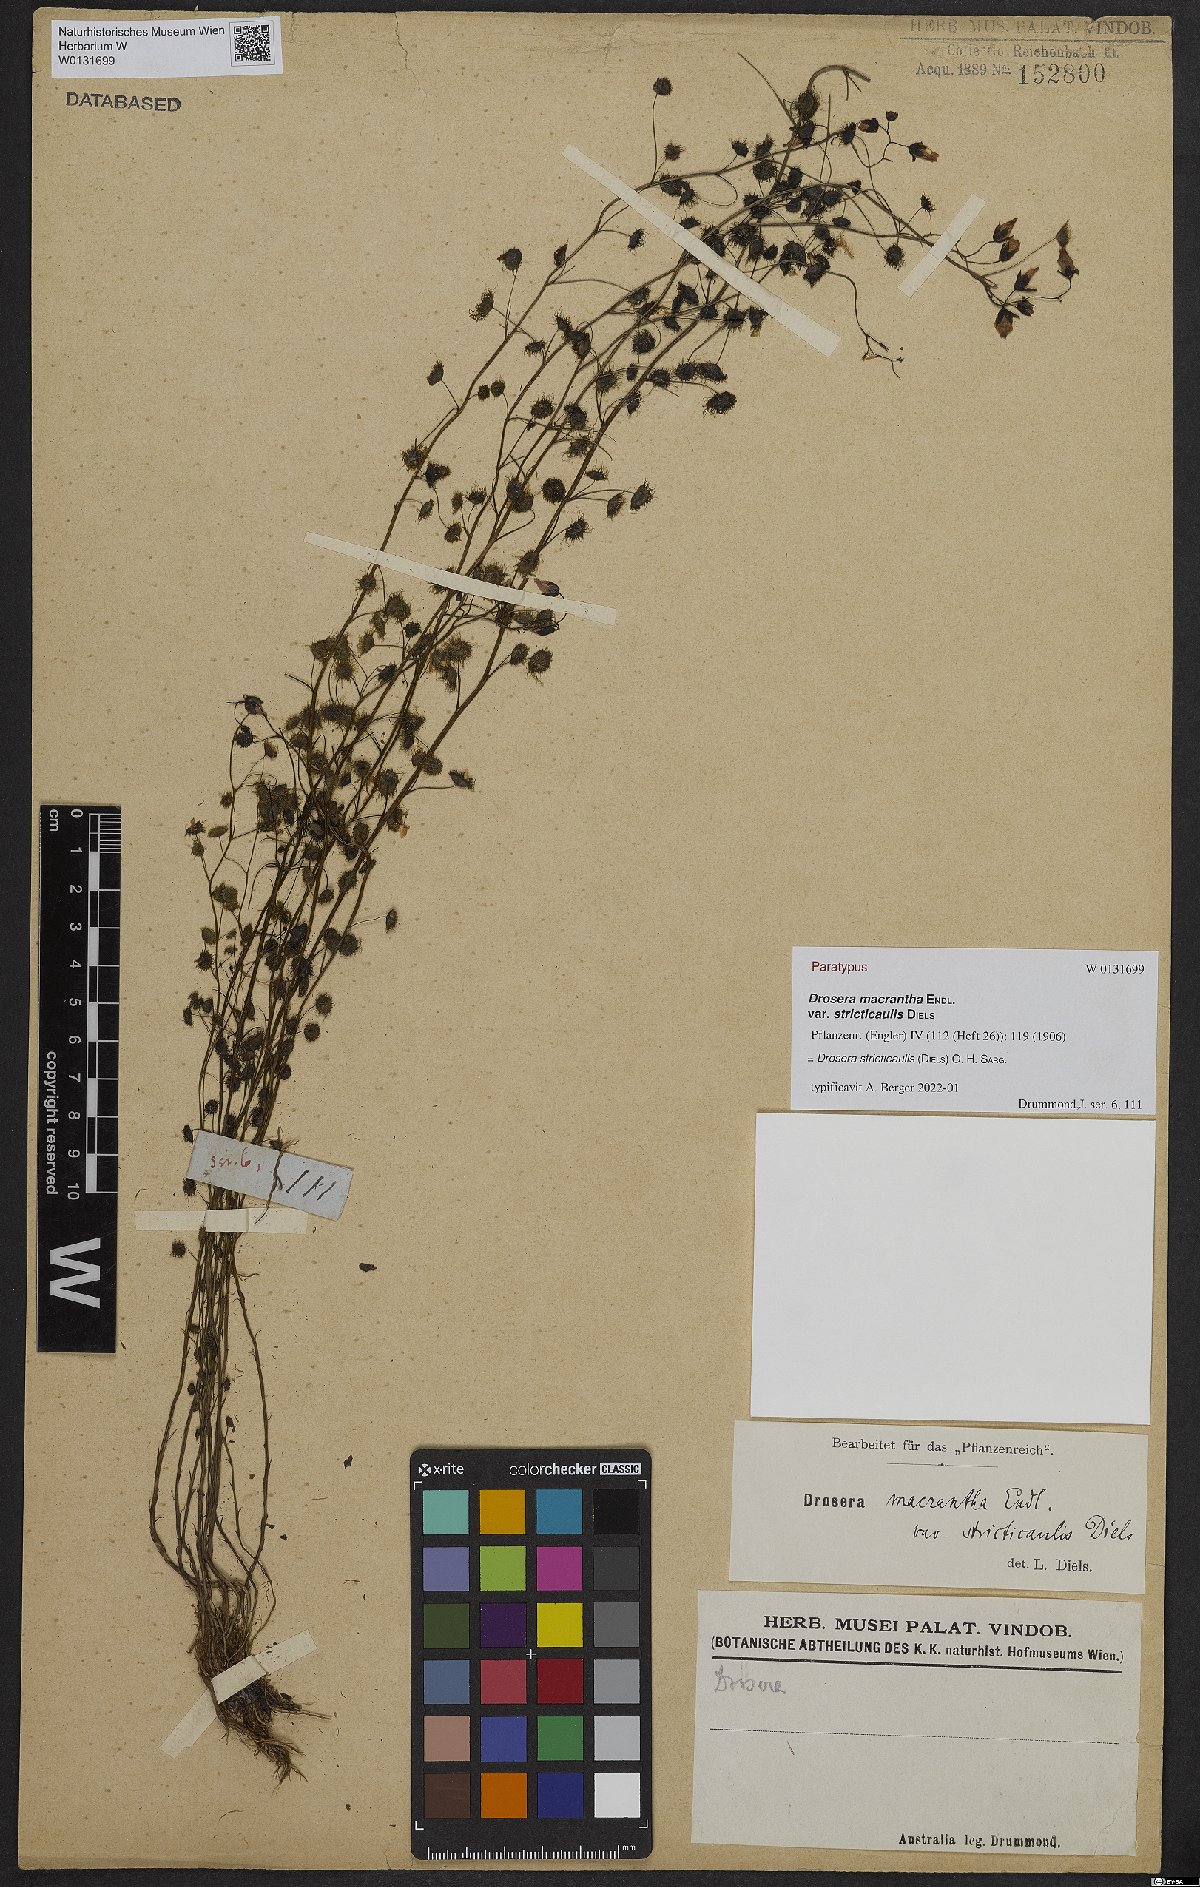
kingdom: Plantae
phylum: Tracheophyta
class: Magnoliopsida
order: Caryophyllales
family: Droseraceae
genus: Drosera
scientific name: Drosera stricticaulis
